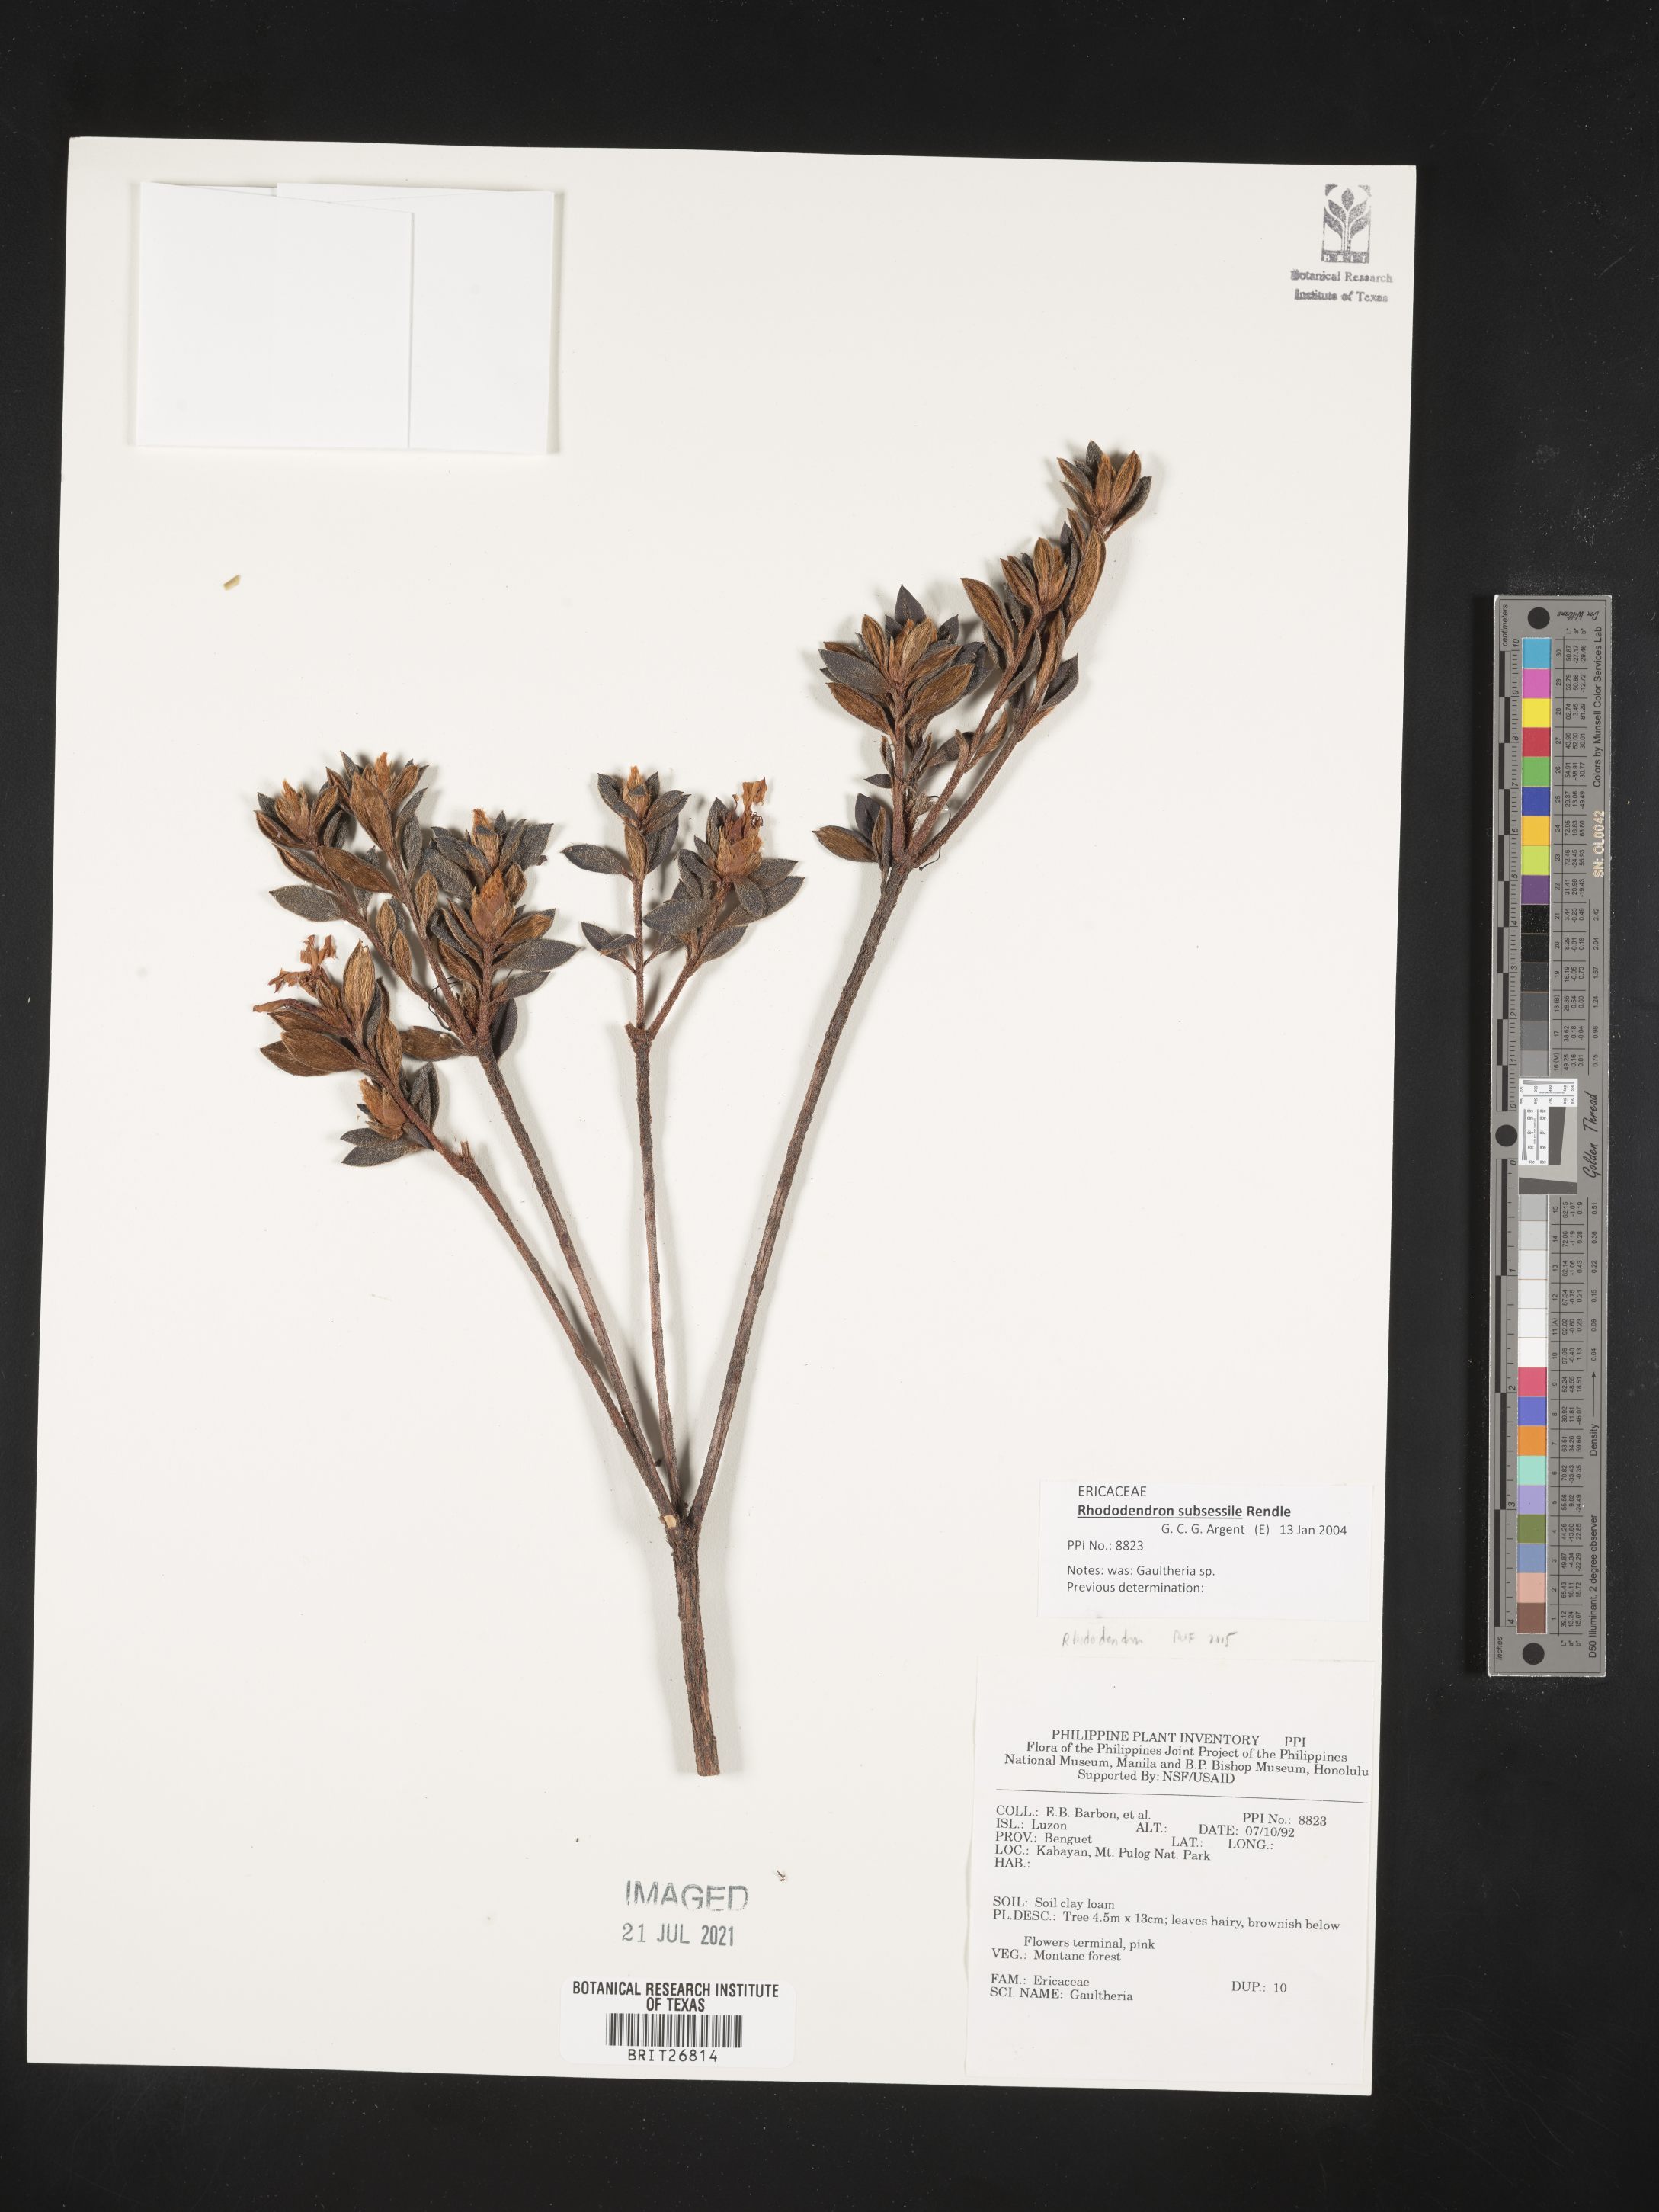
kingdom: Plantae
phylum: Tracheophyta
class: Magnoliopsida
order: Ericales
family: Ericaceae
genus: Rhododendron
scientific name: Rhododendron subsessile
